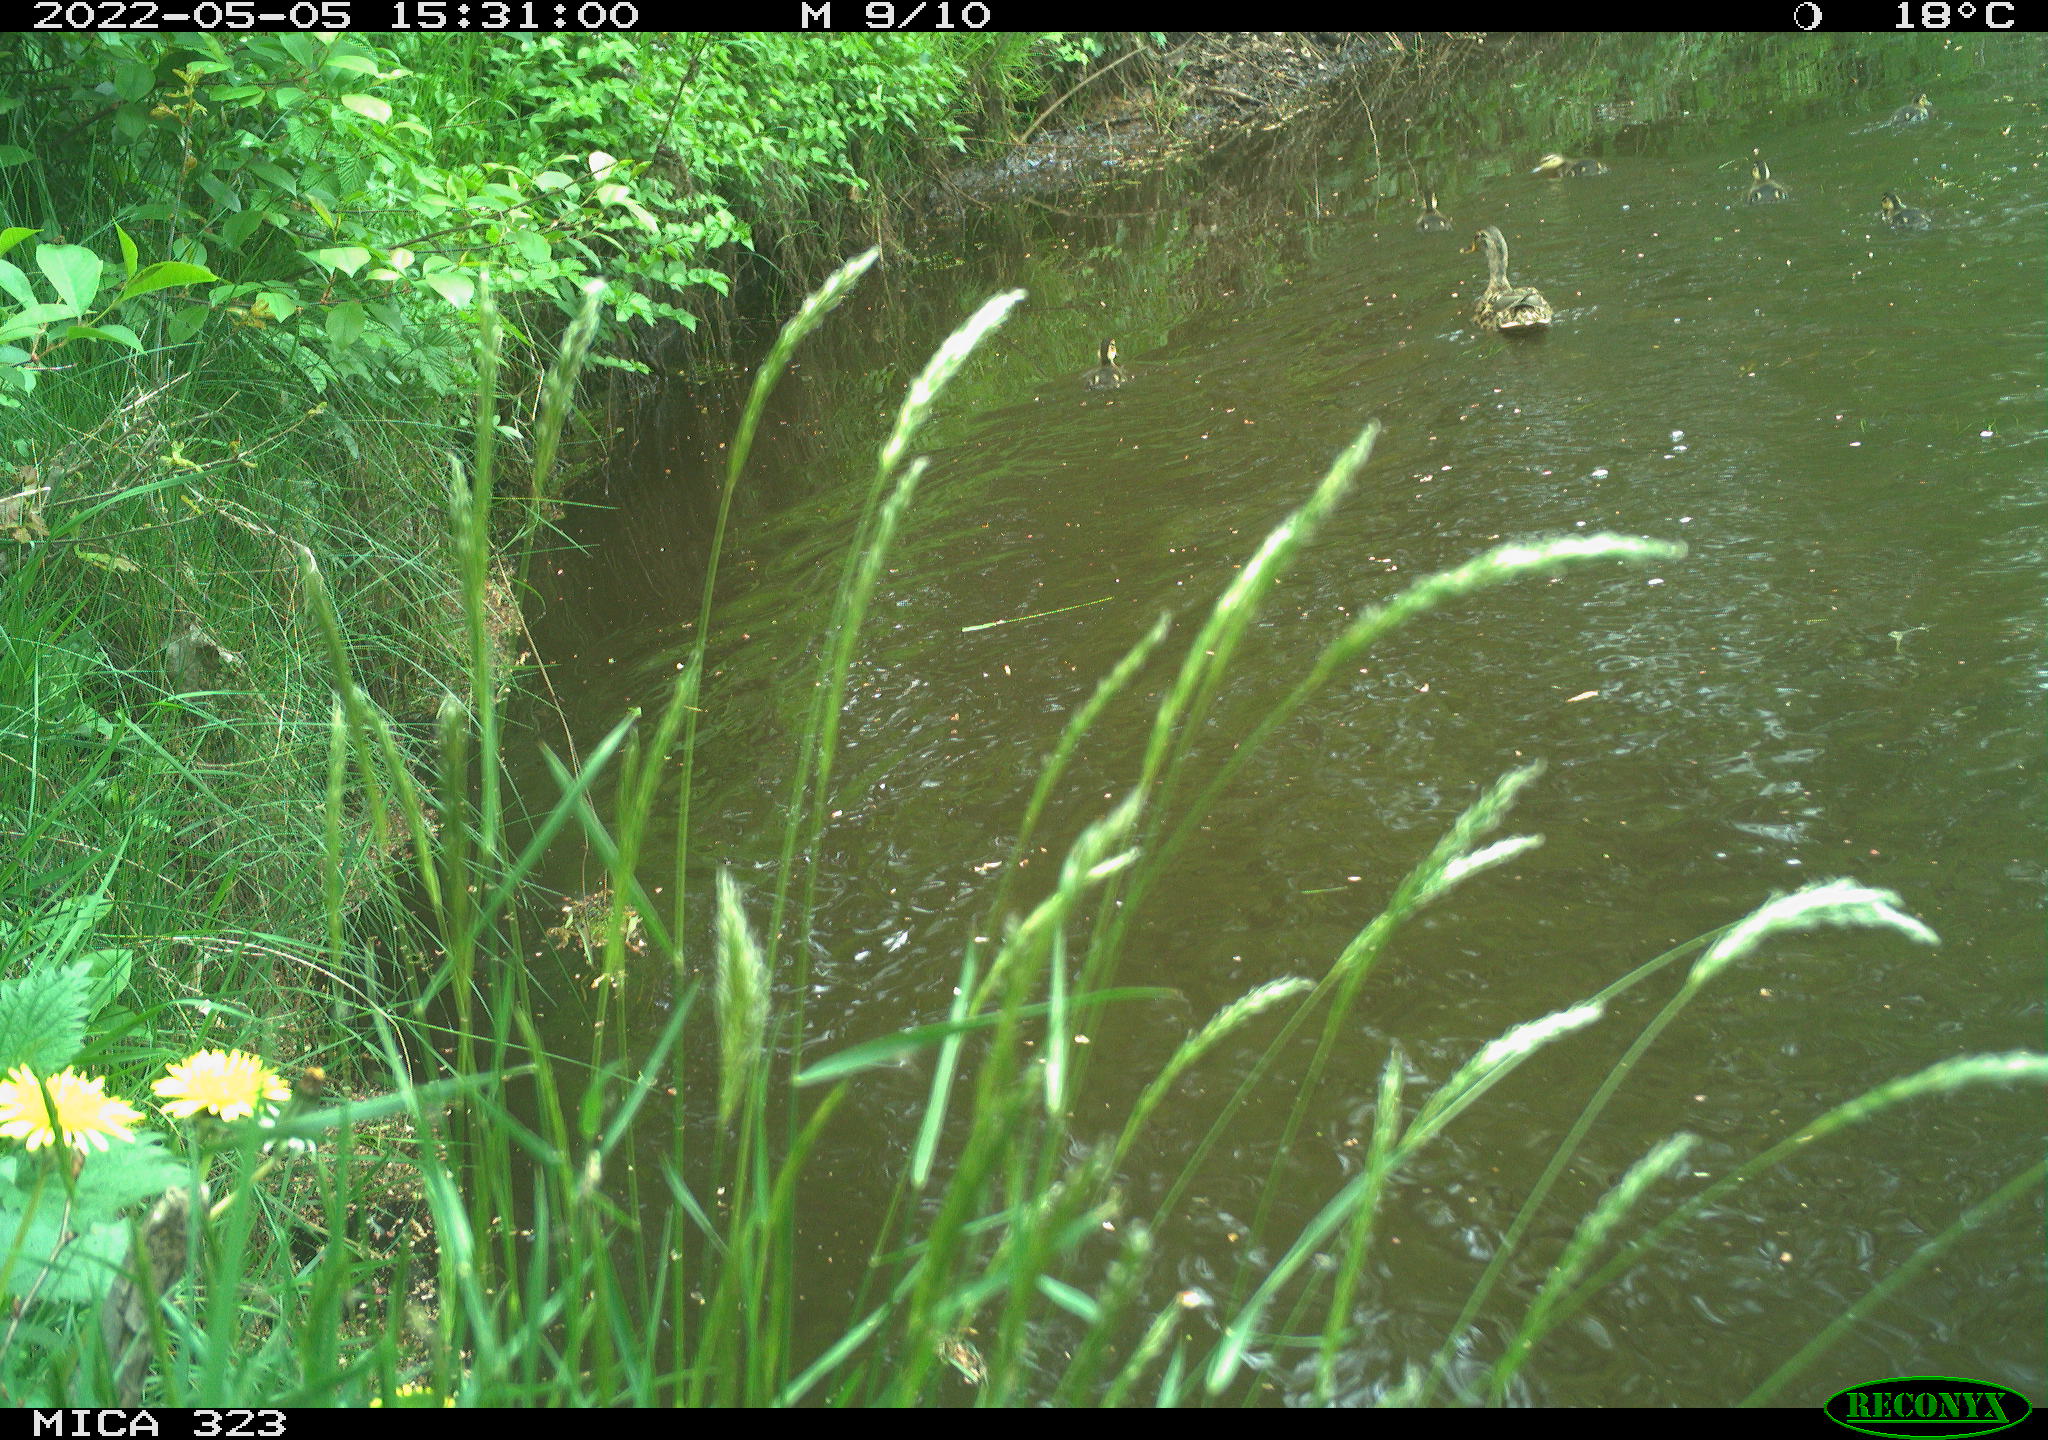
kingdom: Animalia
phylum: Chordata
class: Aves
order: Anseriformes
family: Anatidae
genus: Anas
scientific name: Anas
